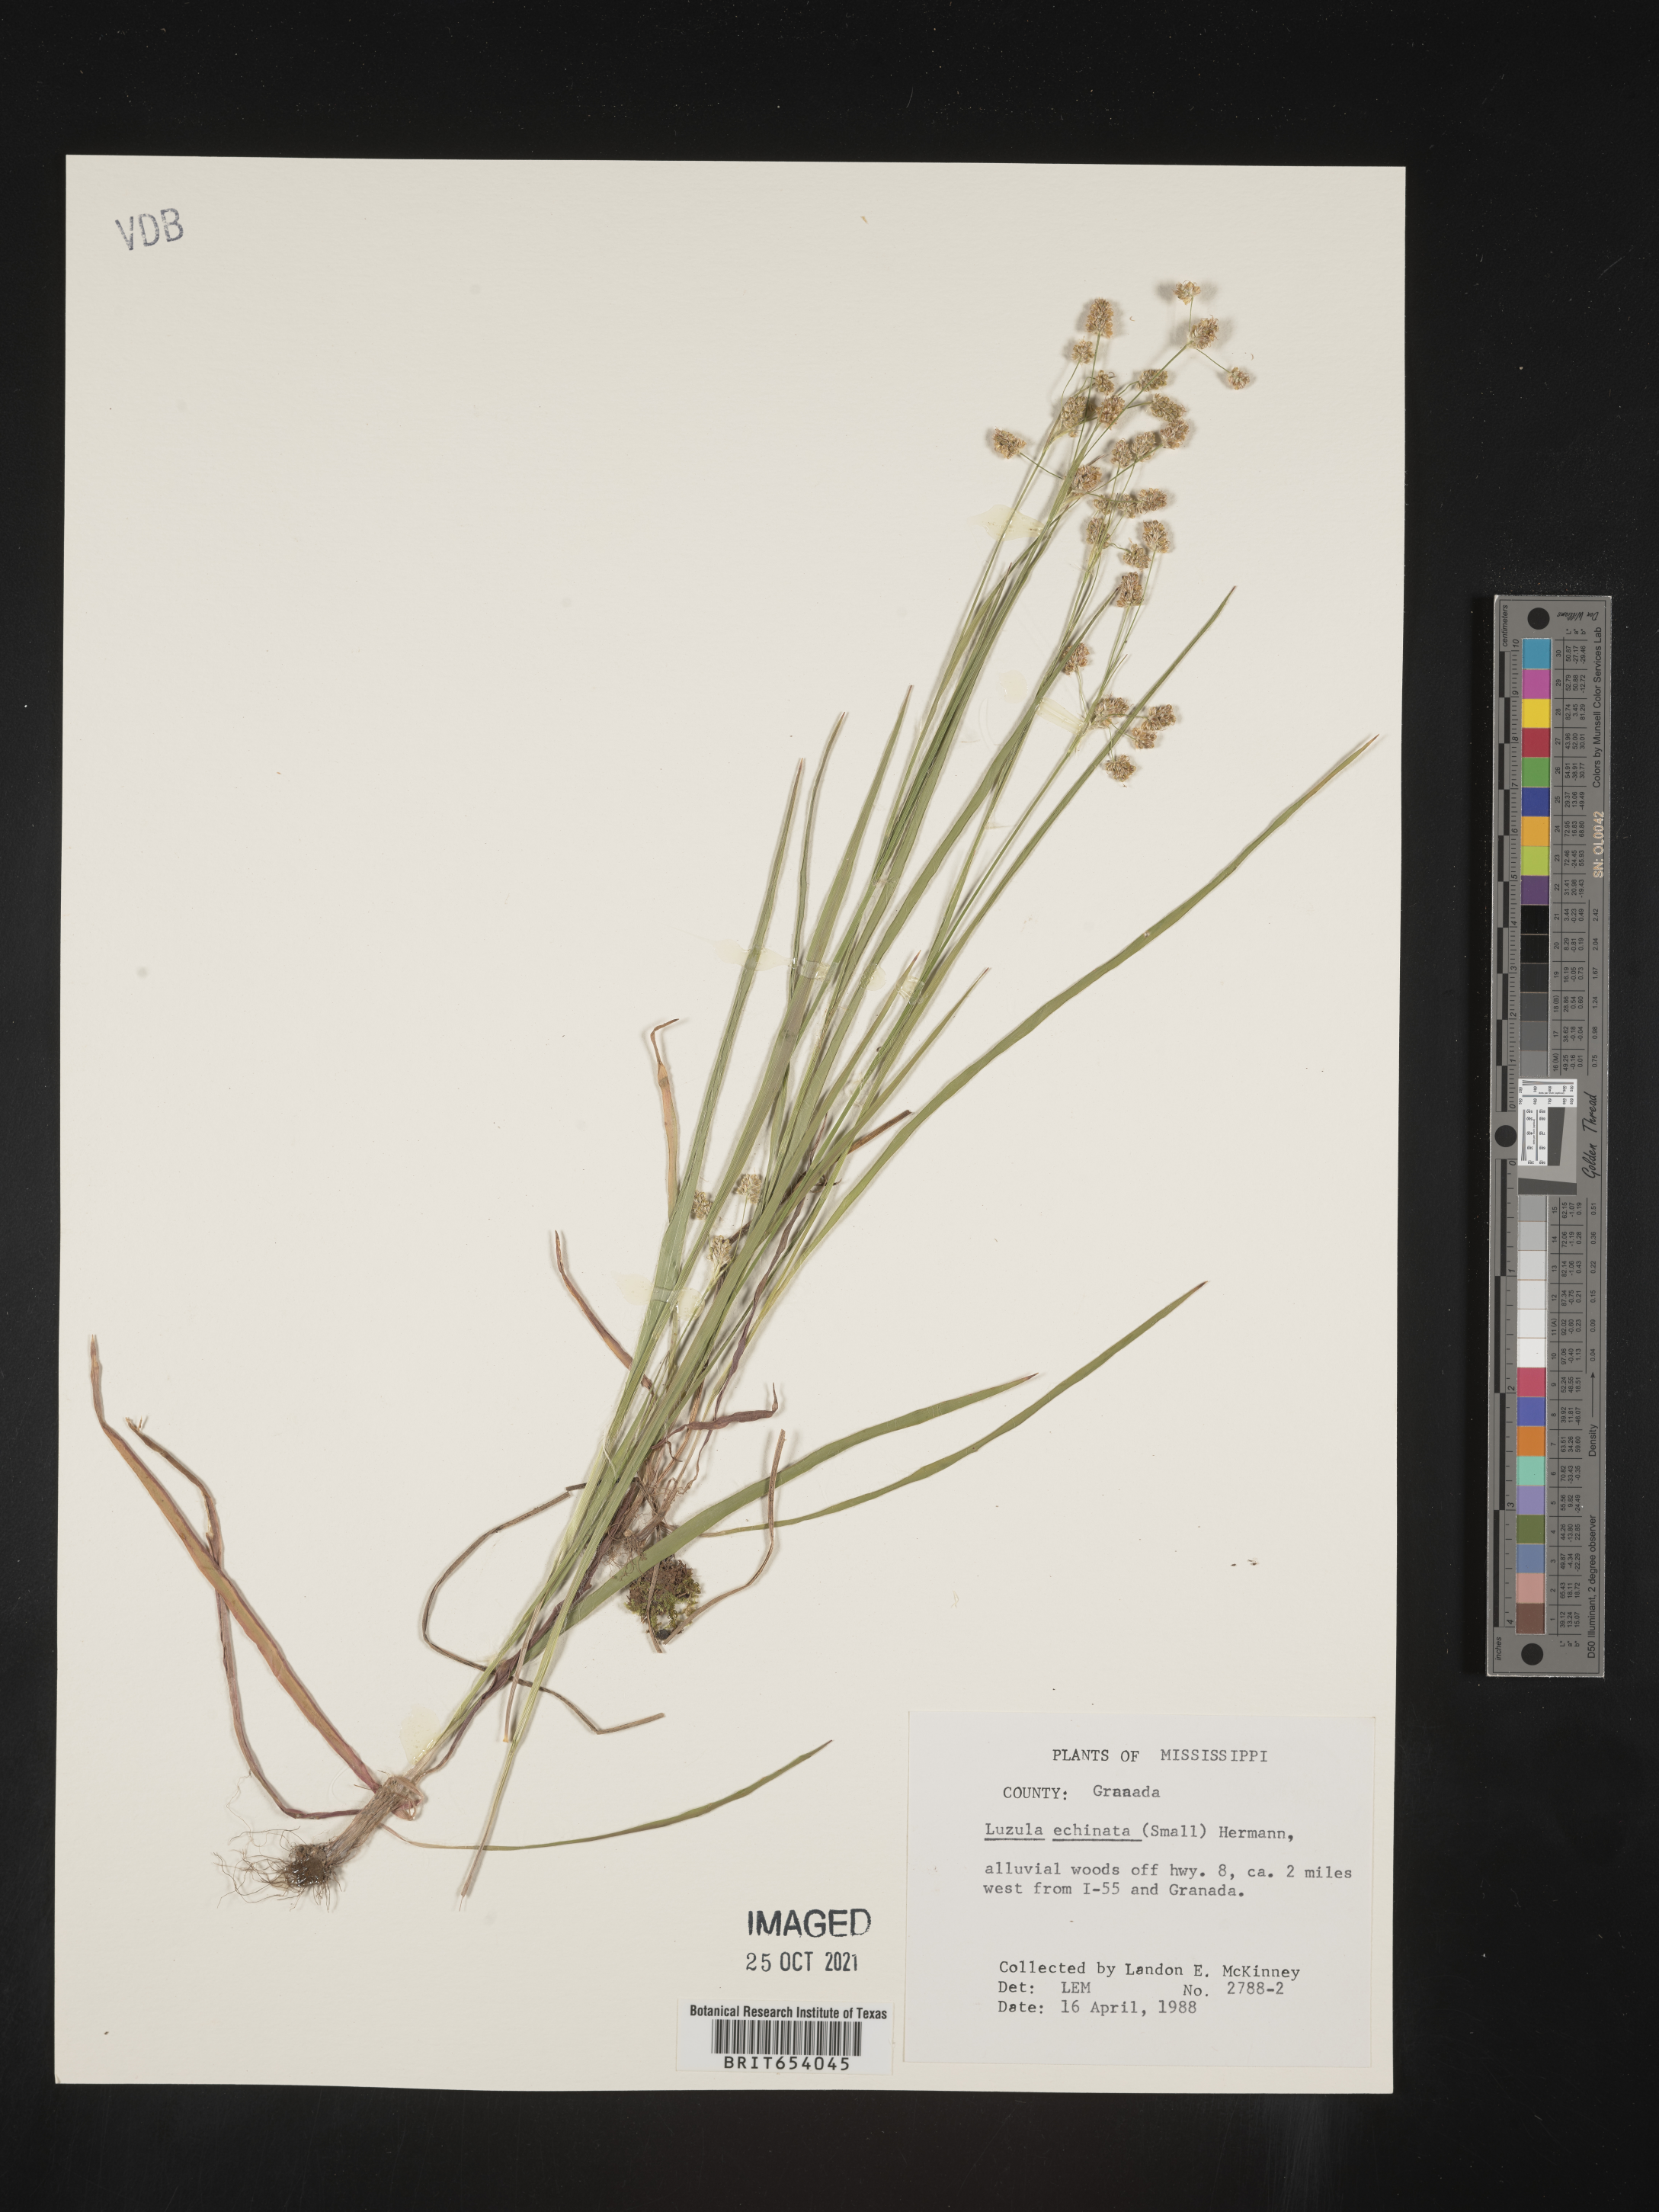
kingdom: Plantae
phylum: Tracheophyta
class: Liliopsida
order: Poales
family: Juncaceae
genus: Luzula
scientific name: Luzula echinata
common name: Hedgehog woodrush
